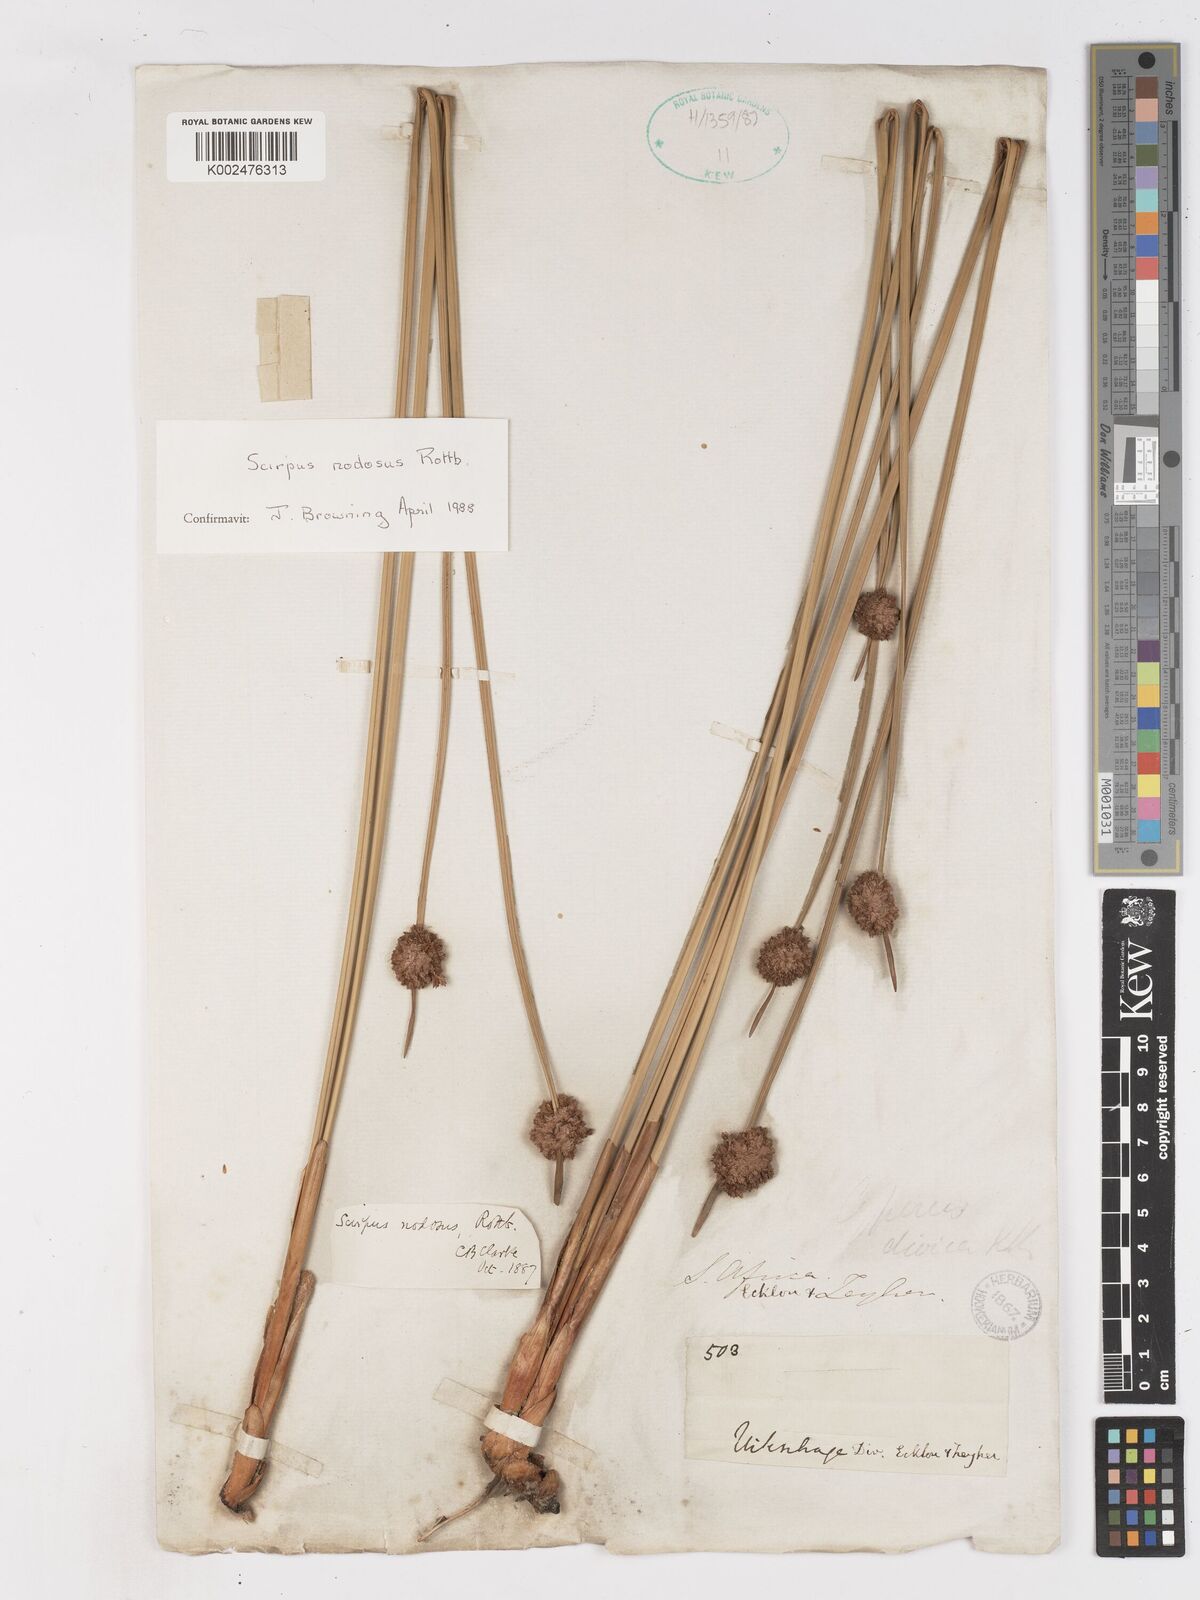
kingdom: Plantae
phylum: Tracheophyta
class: Liliopsida
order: Poales
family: Cyperaceae
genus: Ficinia
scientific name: Ficinia nodosa
